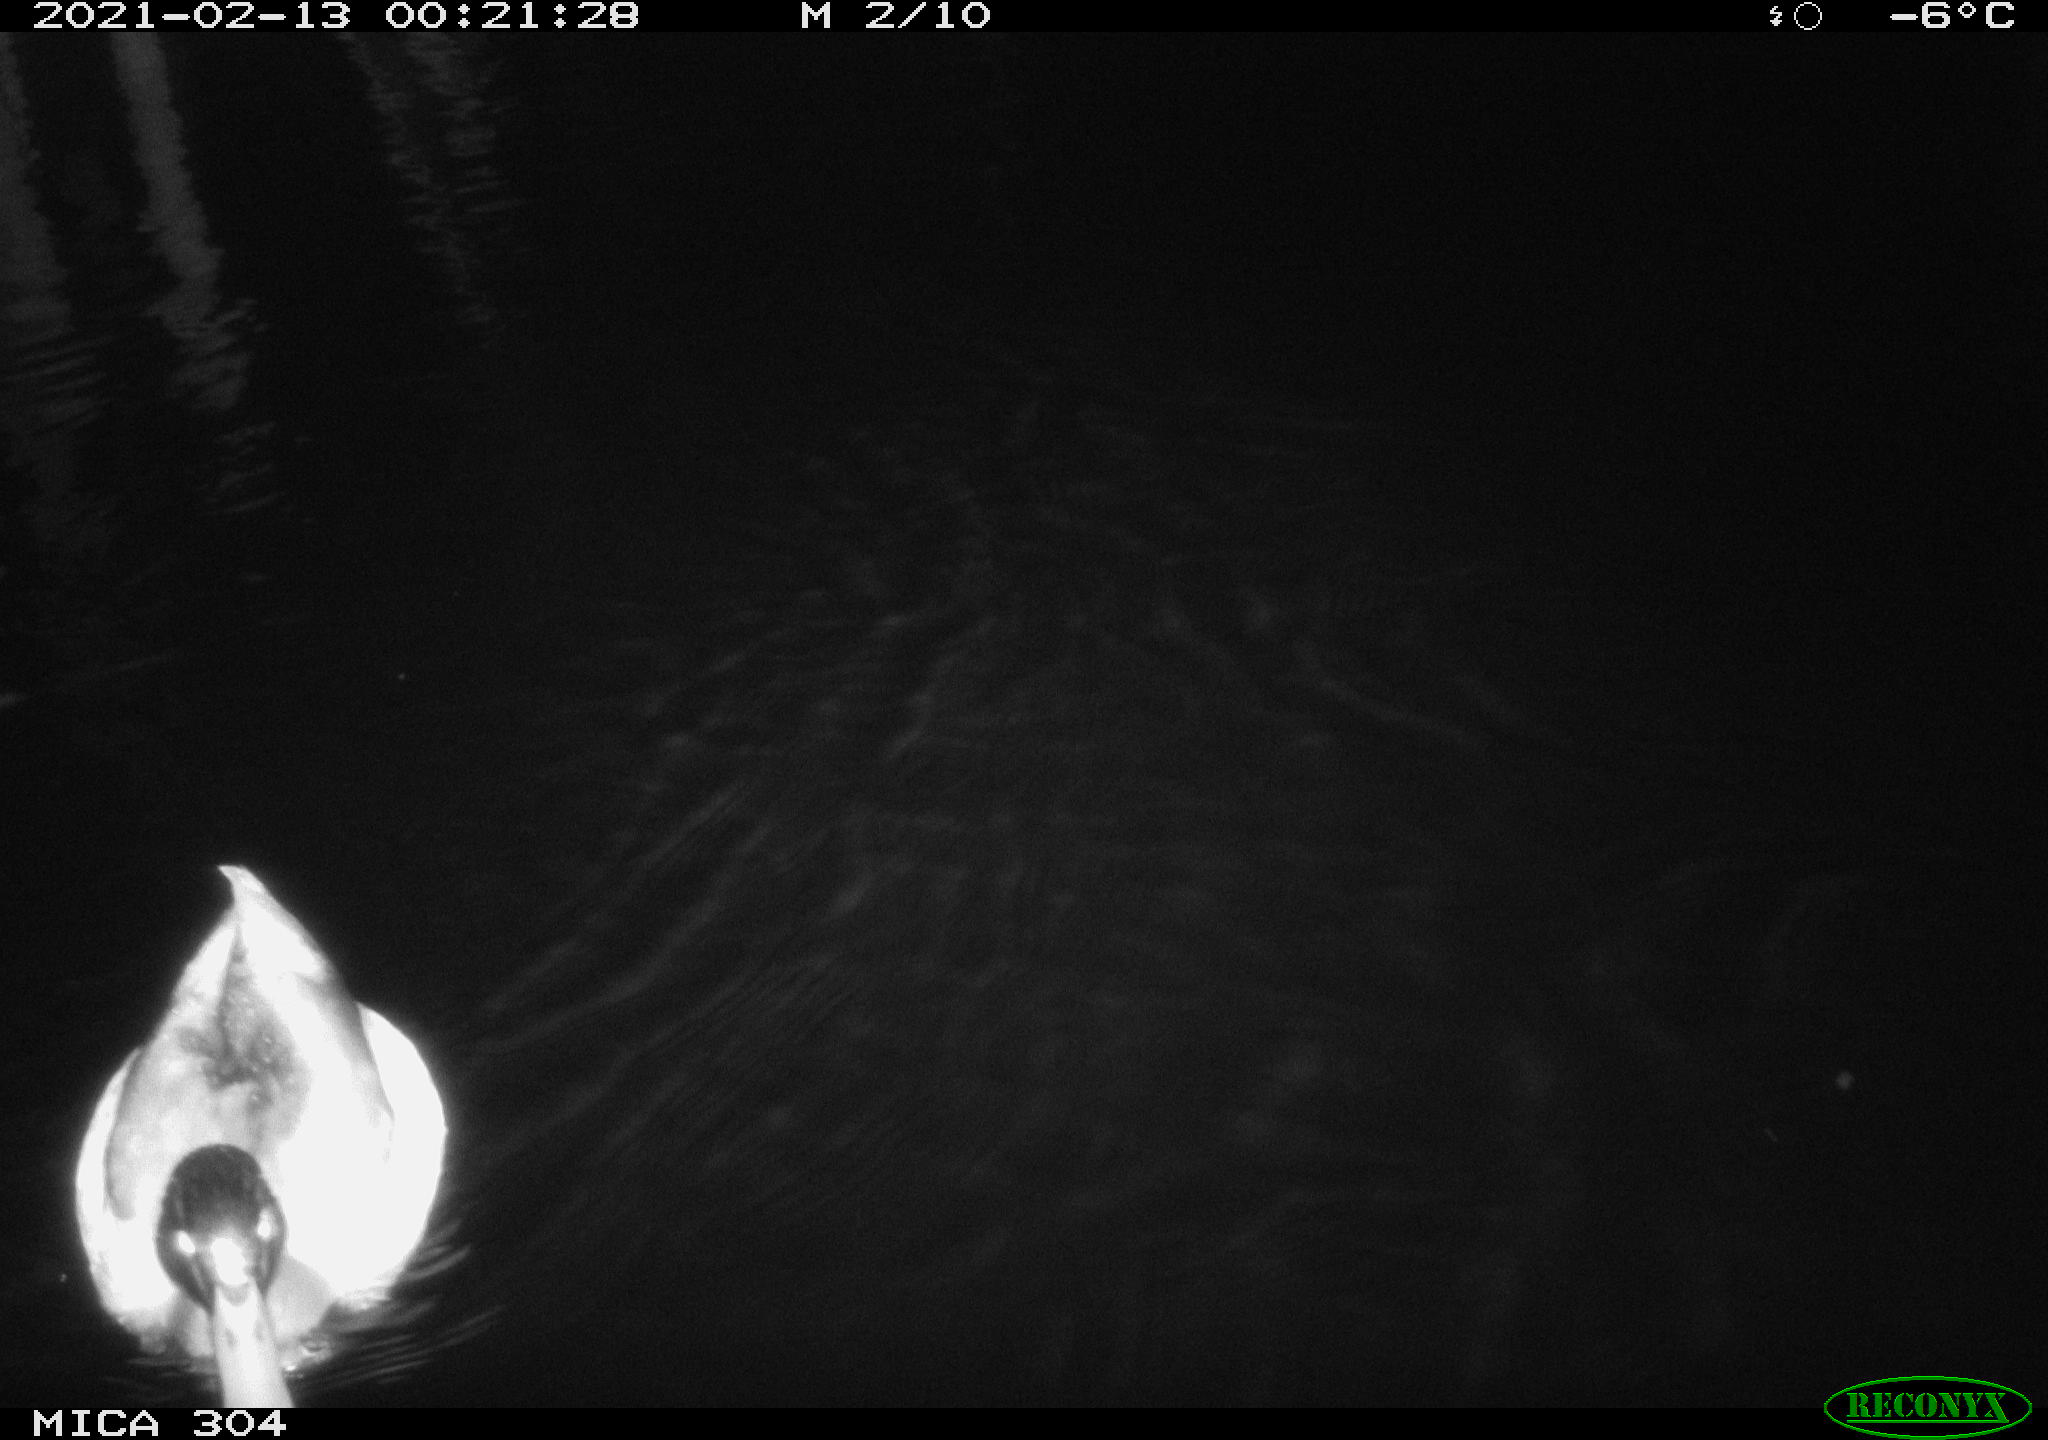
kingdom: Animalia
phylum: Chordata
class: Aves
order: Anseriformes
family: Anatidae
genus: Anas
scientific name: Anas platyrhynchos
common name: Mallard
